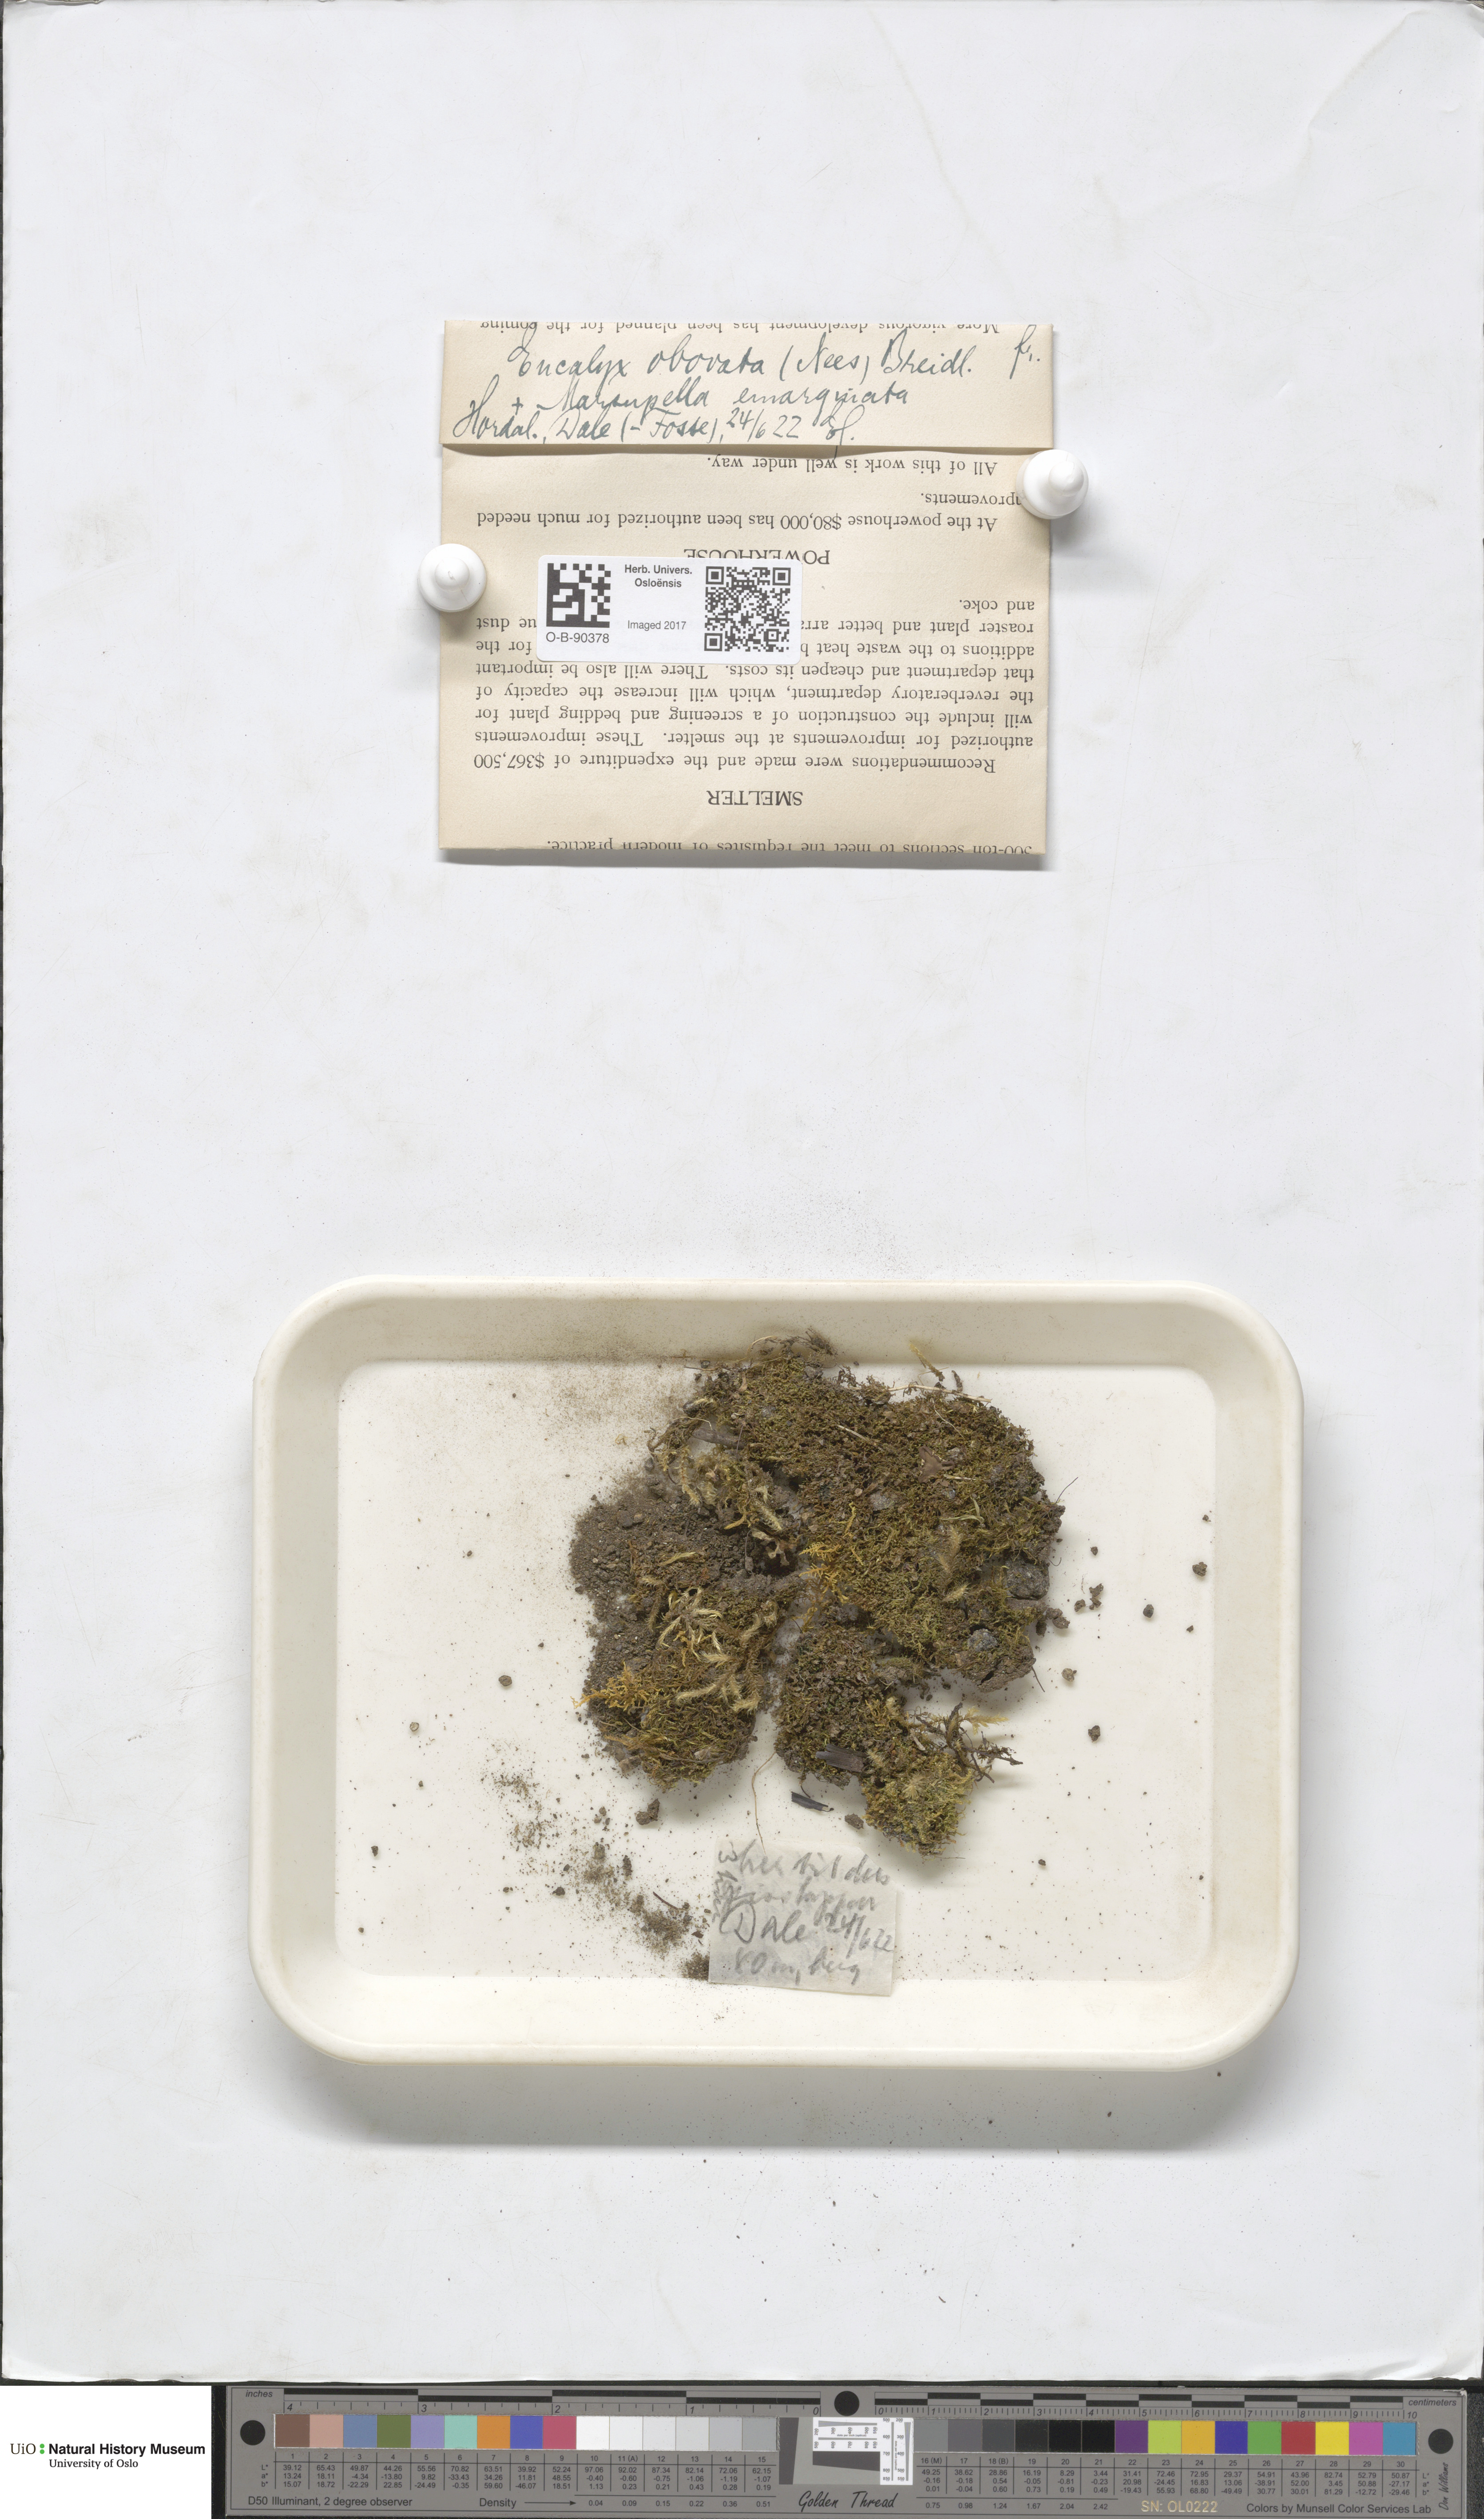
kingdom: Plantae
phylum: Marchantiophyta
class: Jungermanniopsida
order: Jungermanniales
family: Solenostomataceae
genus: Solenostoma
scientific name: Solenostoma obovatum
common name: Egg flapwort
